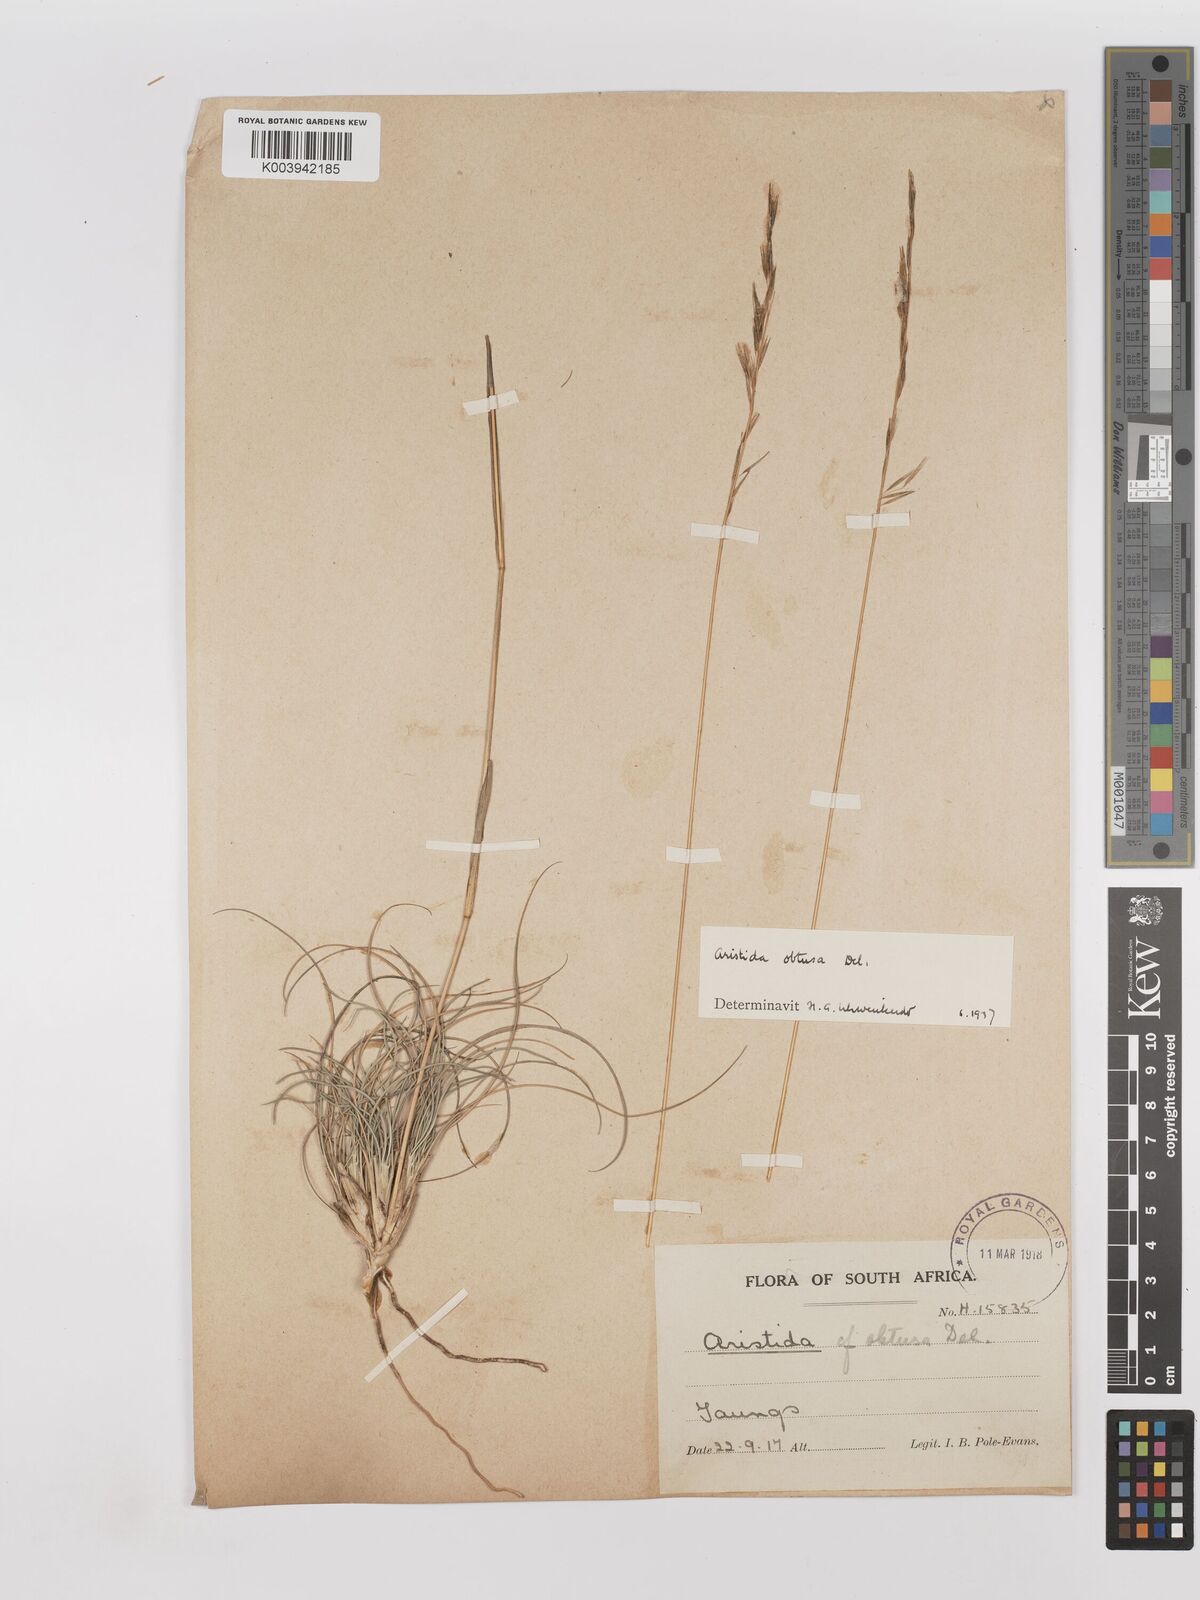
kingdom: Plantae
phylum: Tracheophyta
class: Liliopsida
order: Poales
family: Poaceae
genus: Stipagrostis
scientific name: Stipagrostis obtusa
